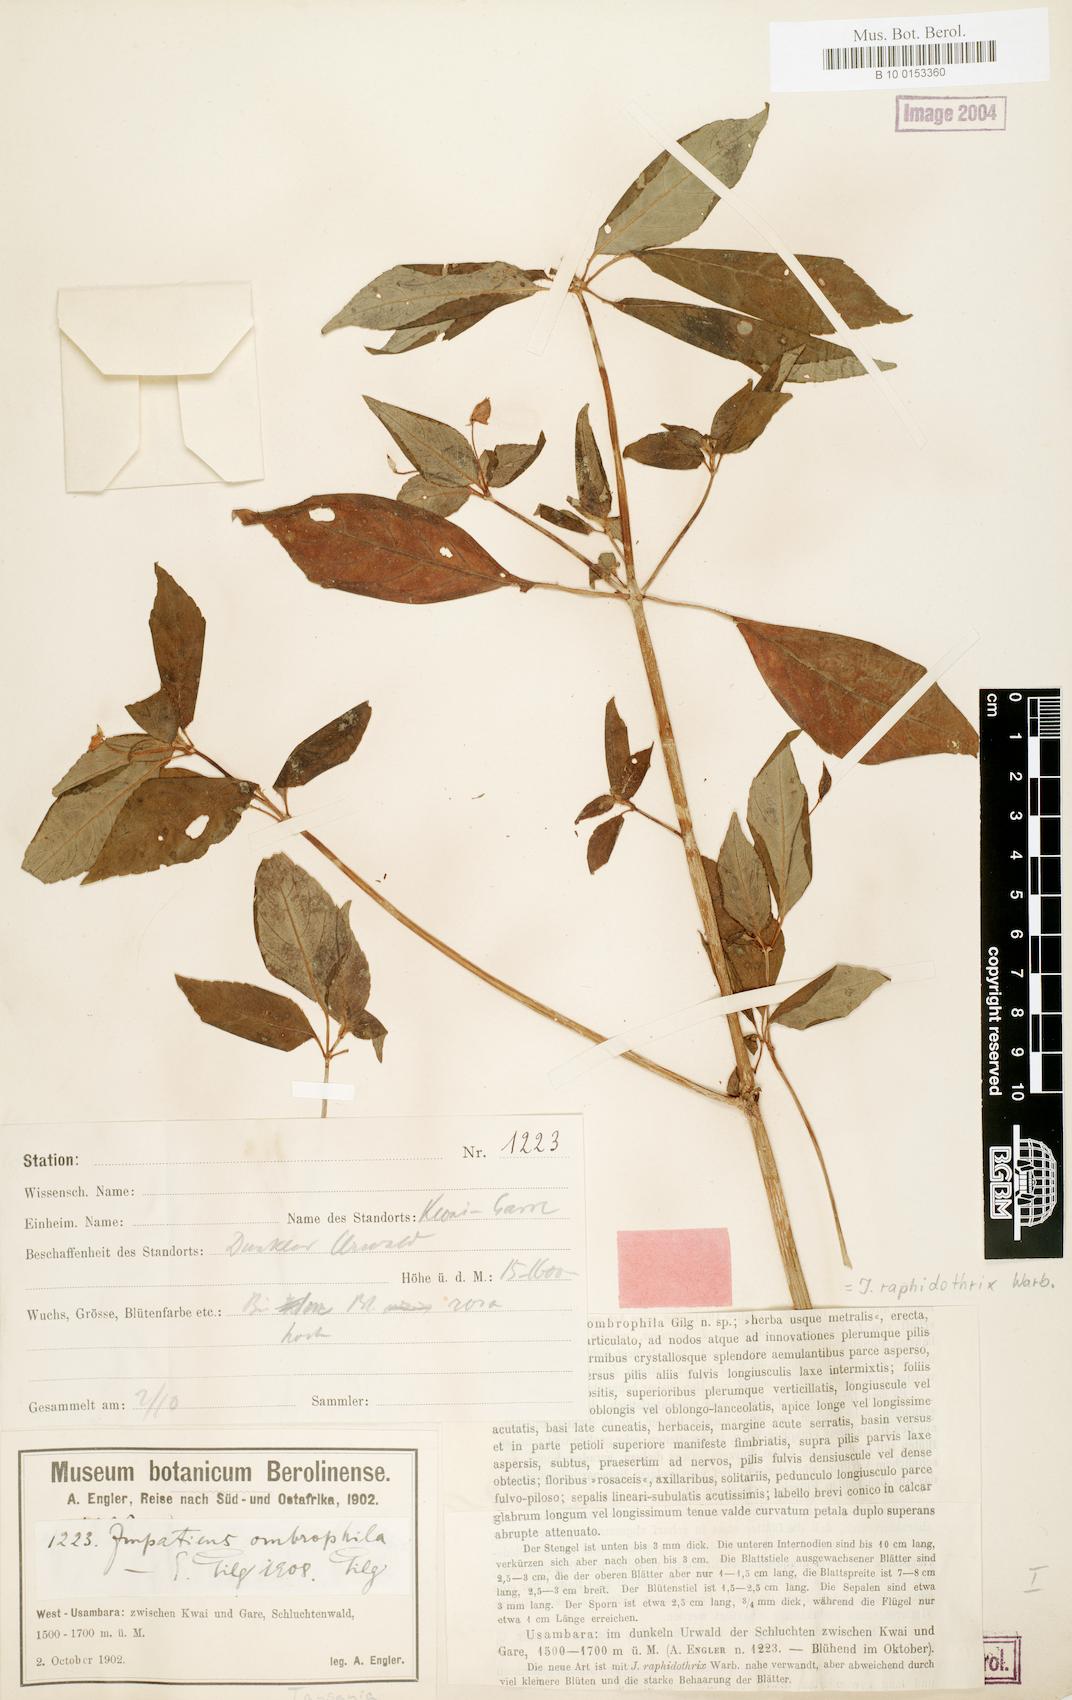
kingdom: Plantae
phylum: Tracheophyta
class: Magnoliopsida
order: Ericales
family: Balsaminaceae
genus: Impatiens
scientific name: Impatiens raphidothrix
